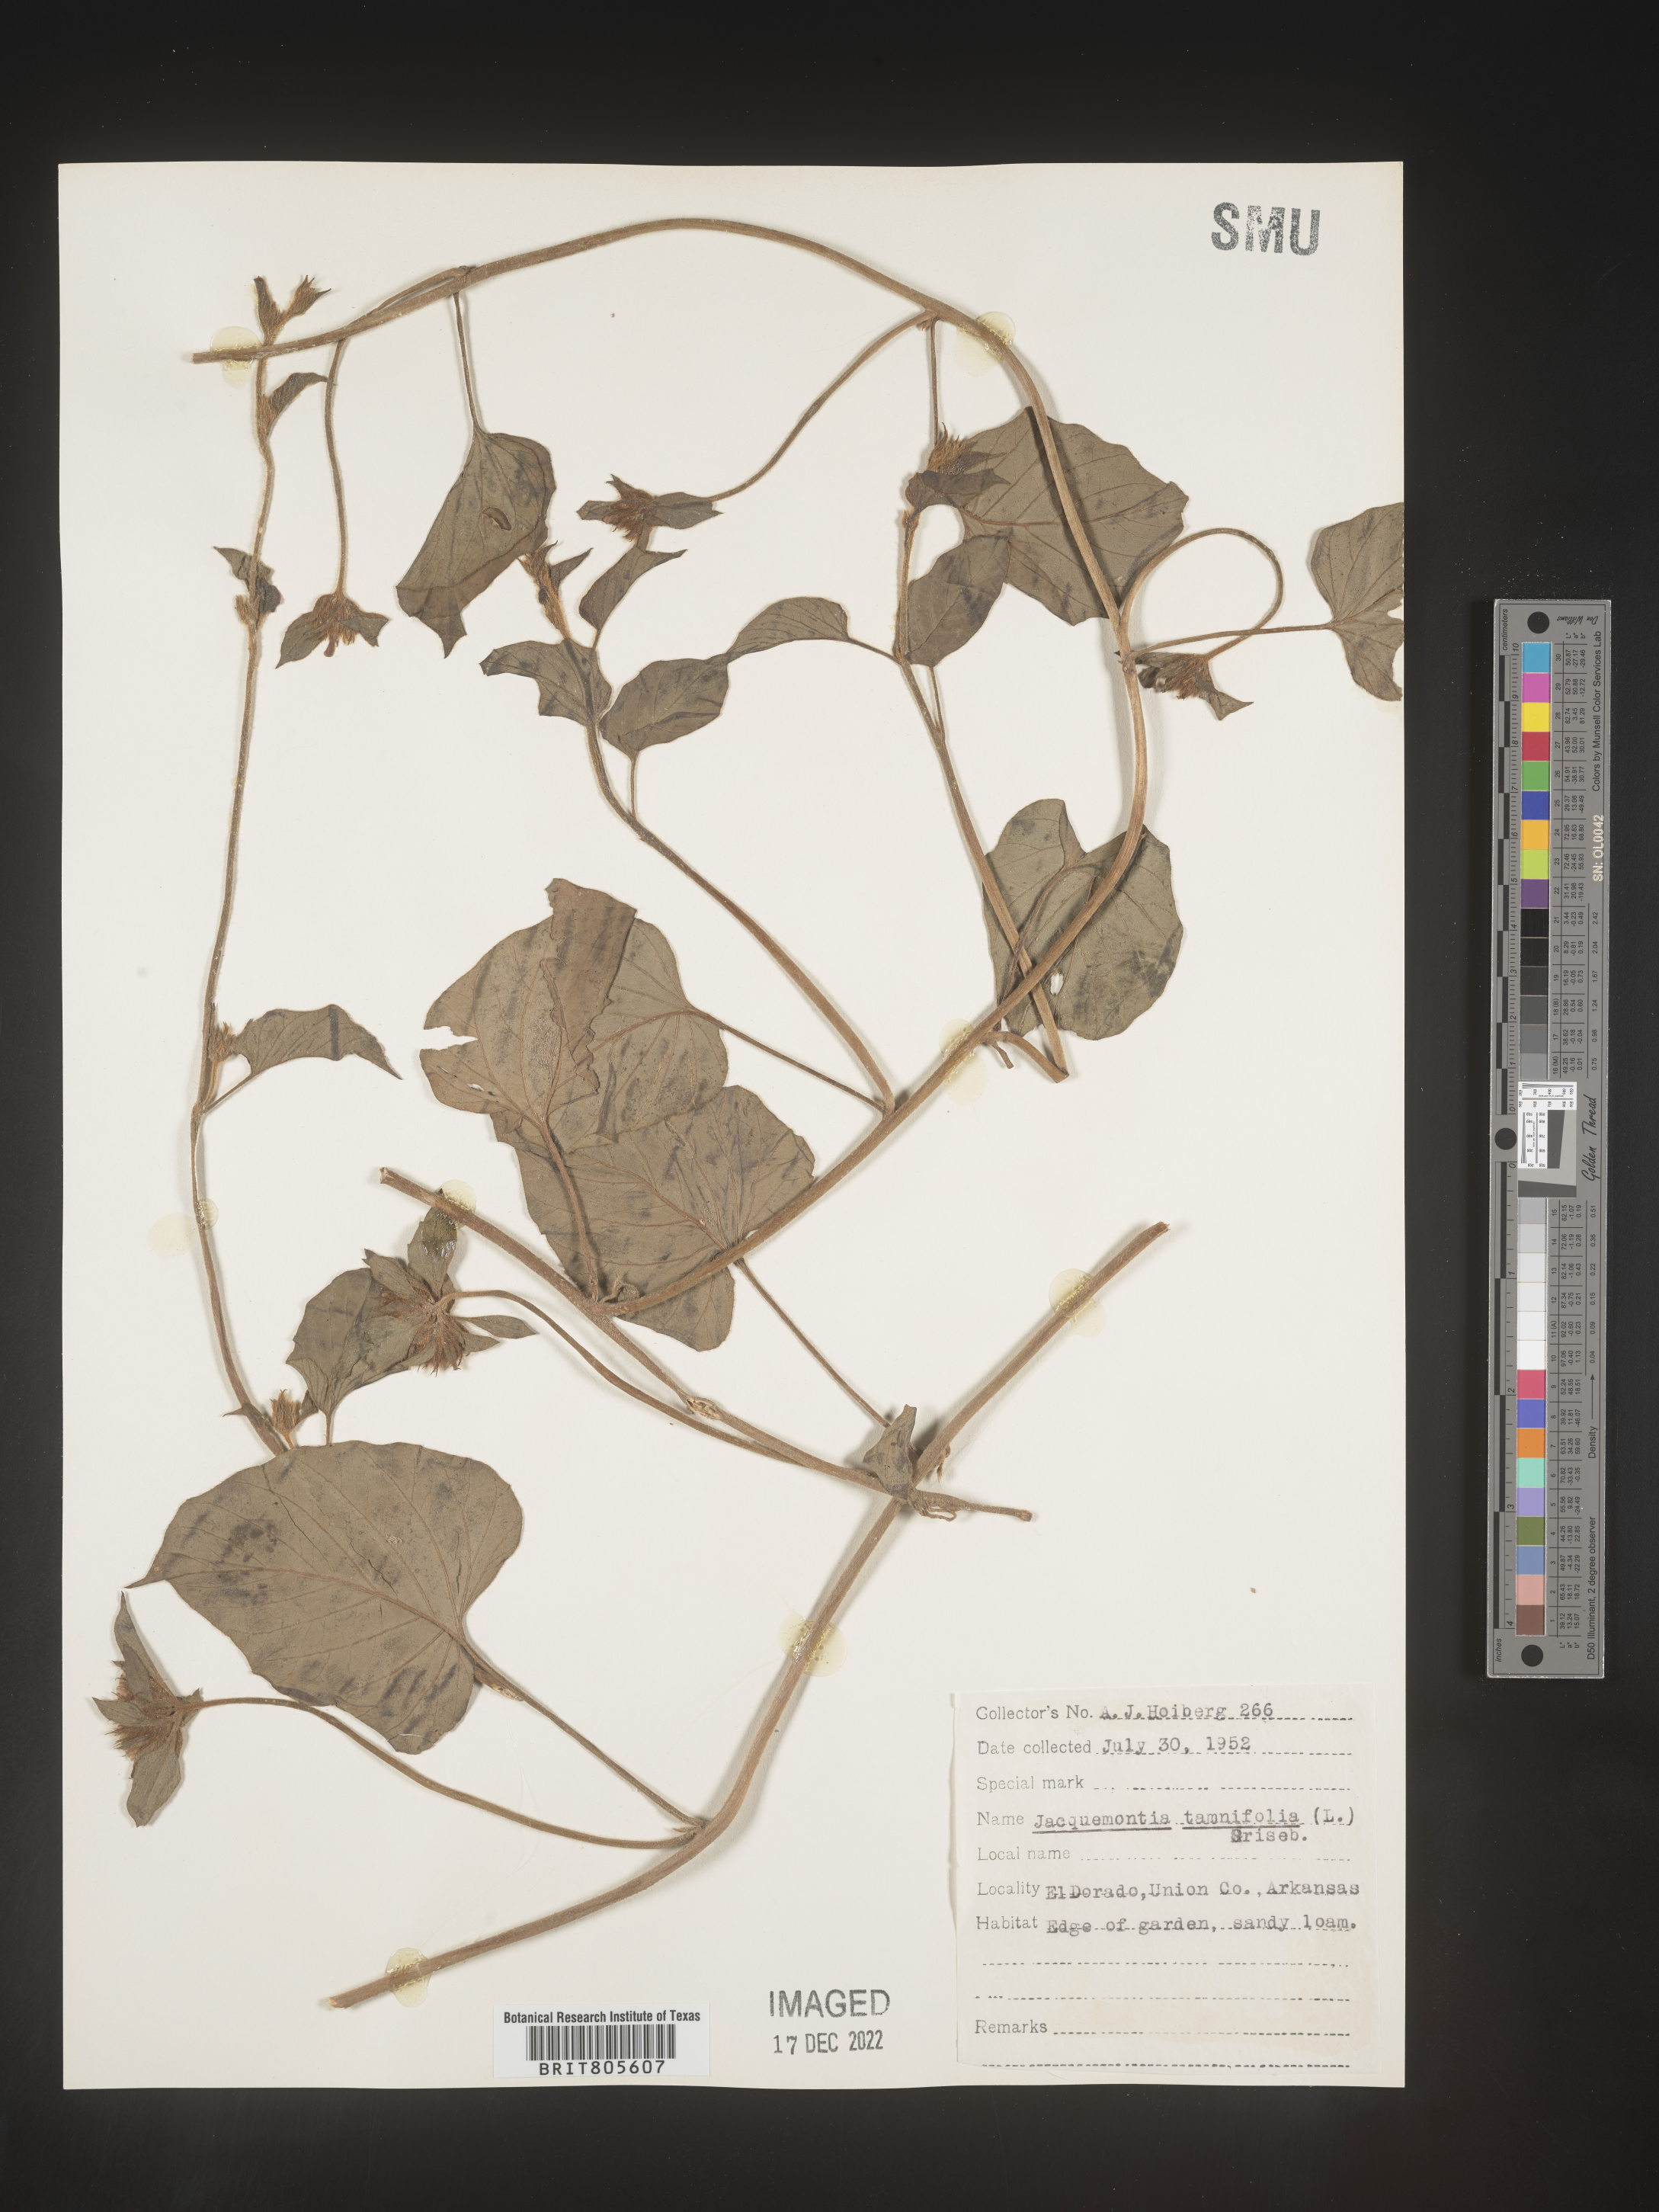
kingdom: Plantae
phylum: Tracheophyta
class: Magnoliopsida
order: Solanales
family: Convolvulaceae
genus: Jacquemontia
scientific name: Jacquemontia tamnifolia
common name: Hairy clustervine
